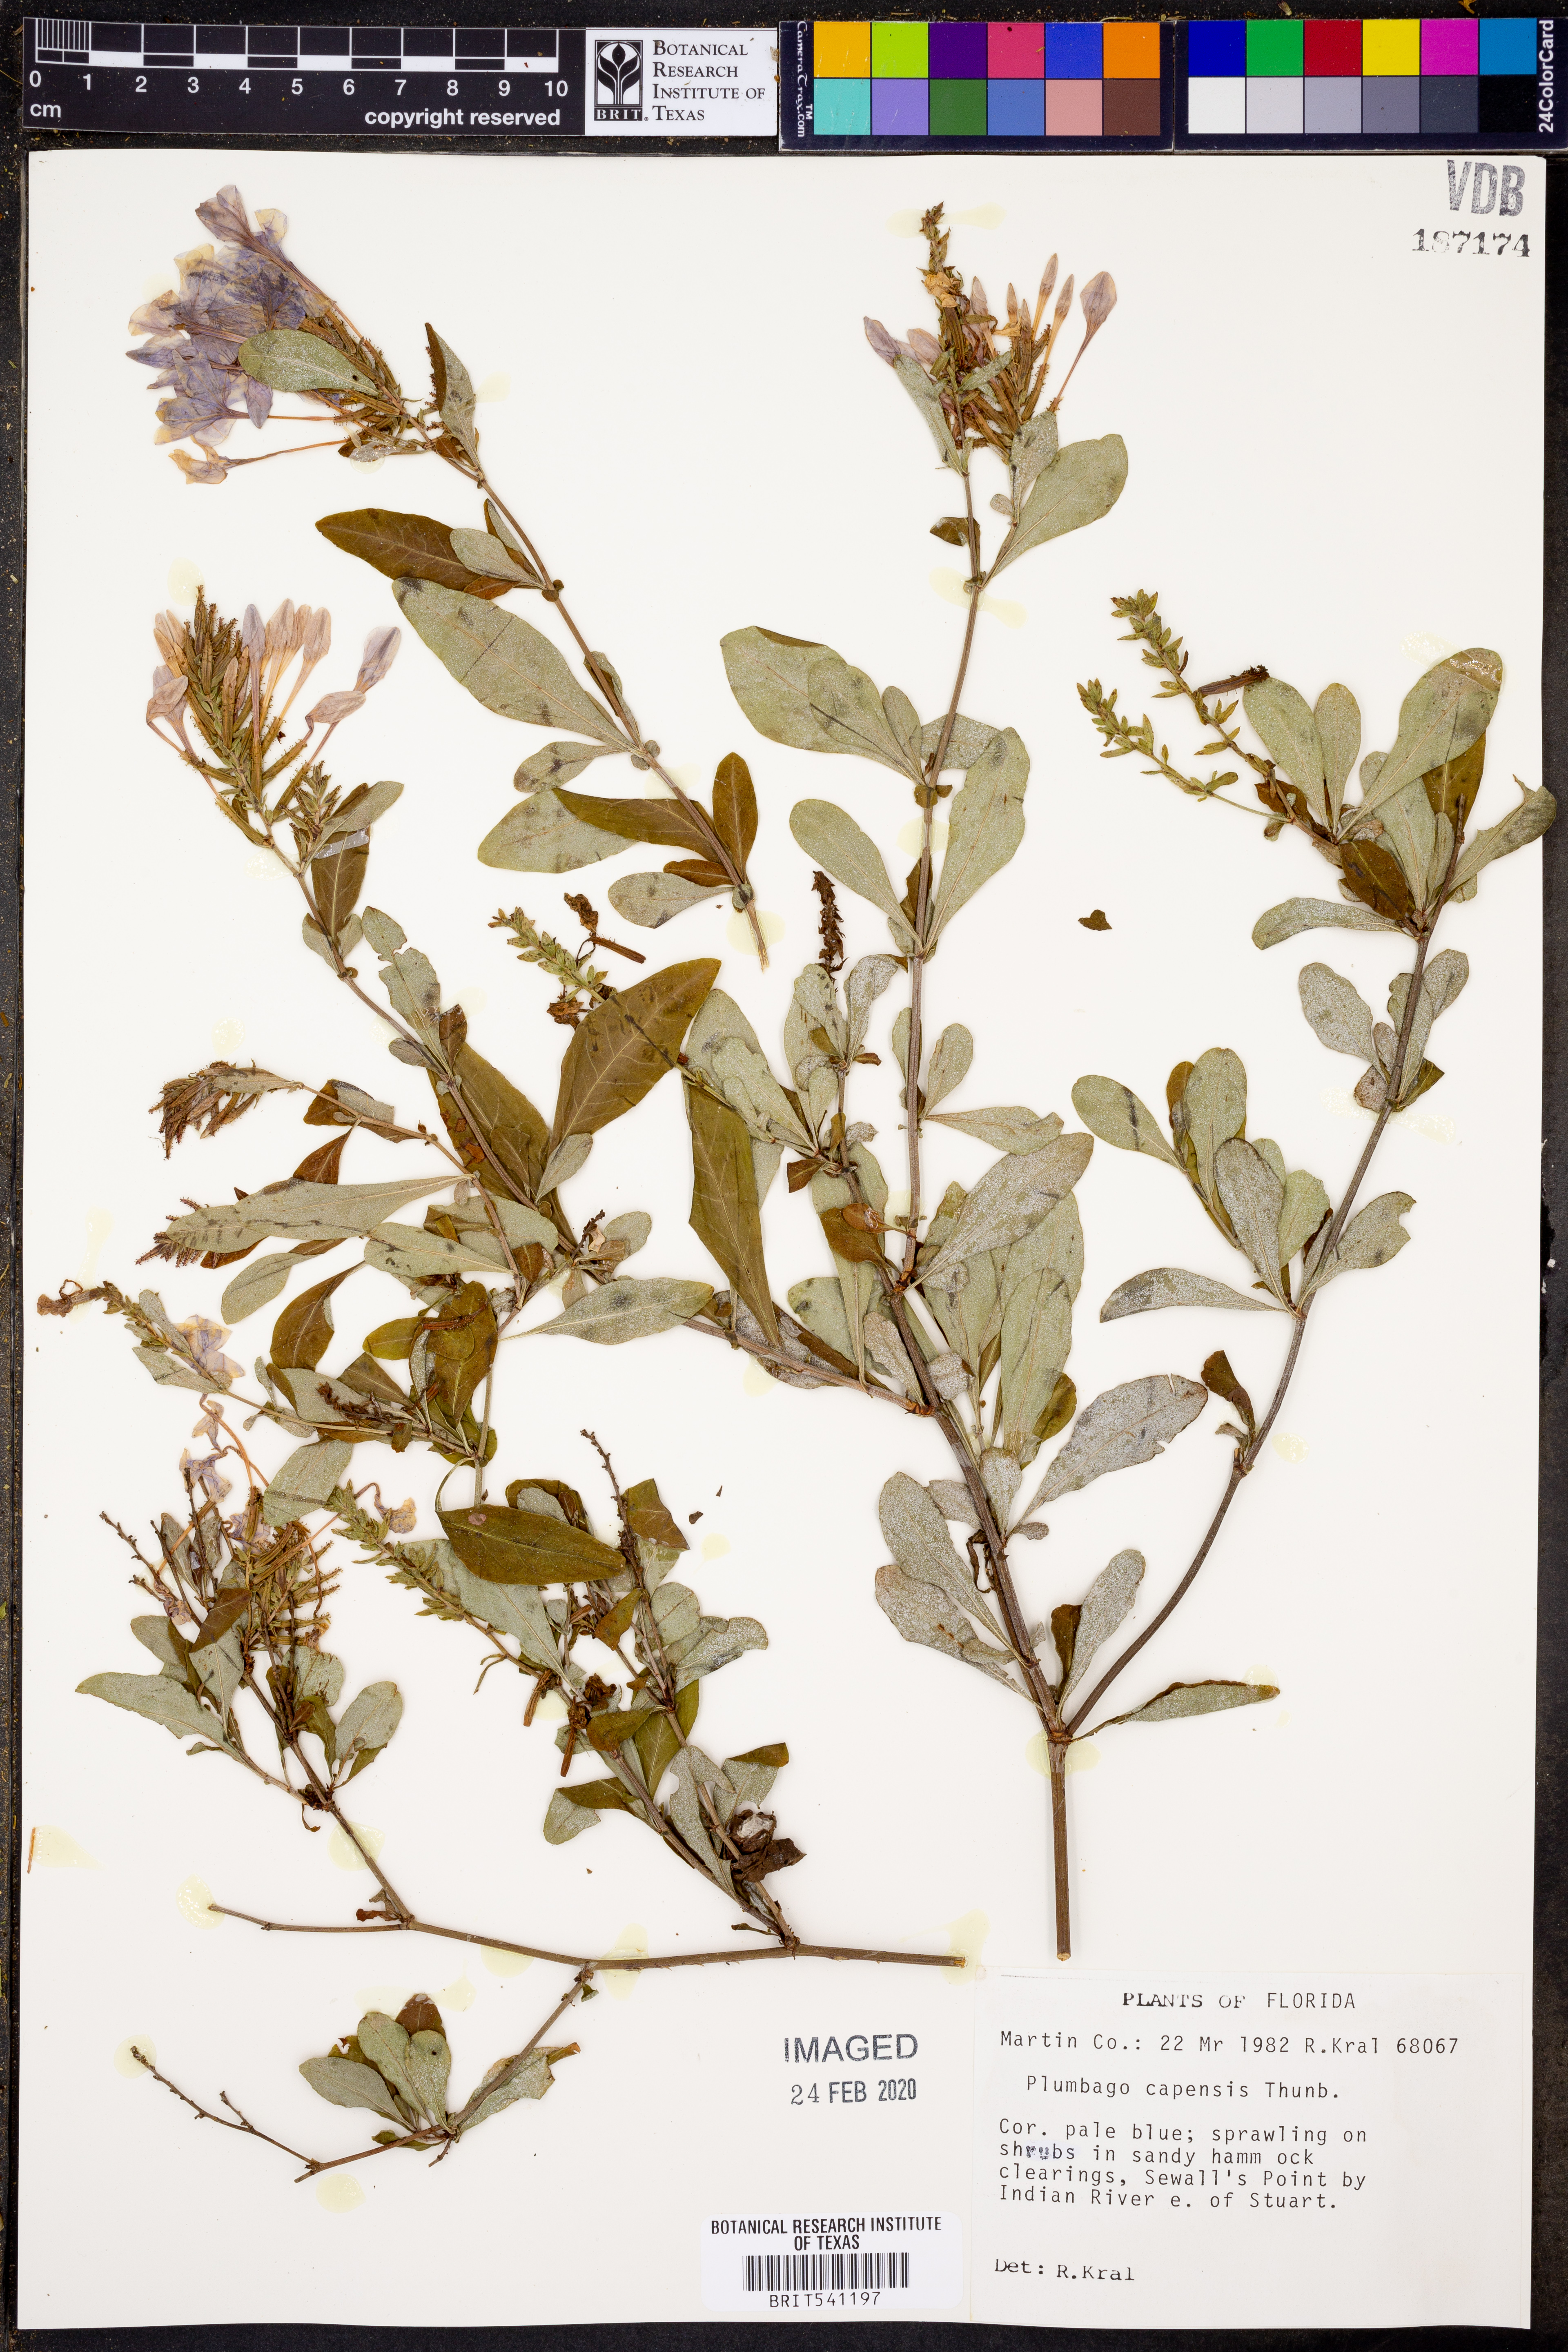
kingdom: Plantae
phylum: Tracheophyta
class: Magnoliopsida
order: Caryophyllales
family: Plumbaginaceae
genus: Plumbago
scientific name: Plumbago auriculata
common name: Cape leadwort
